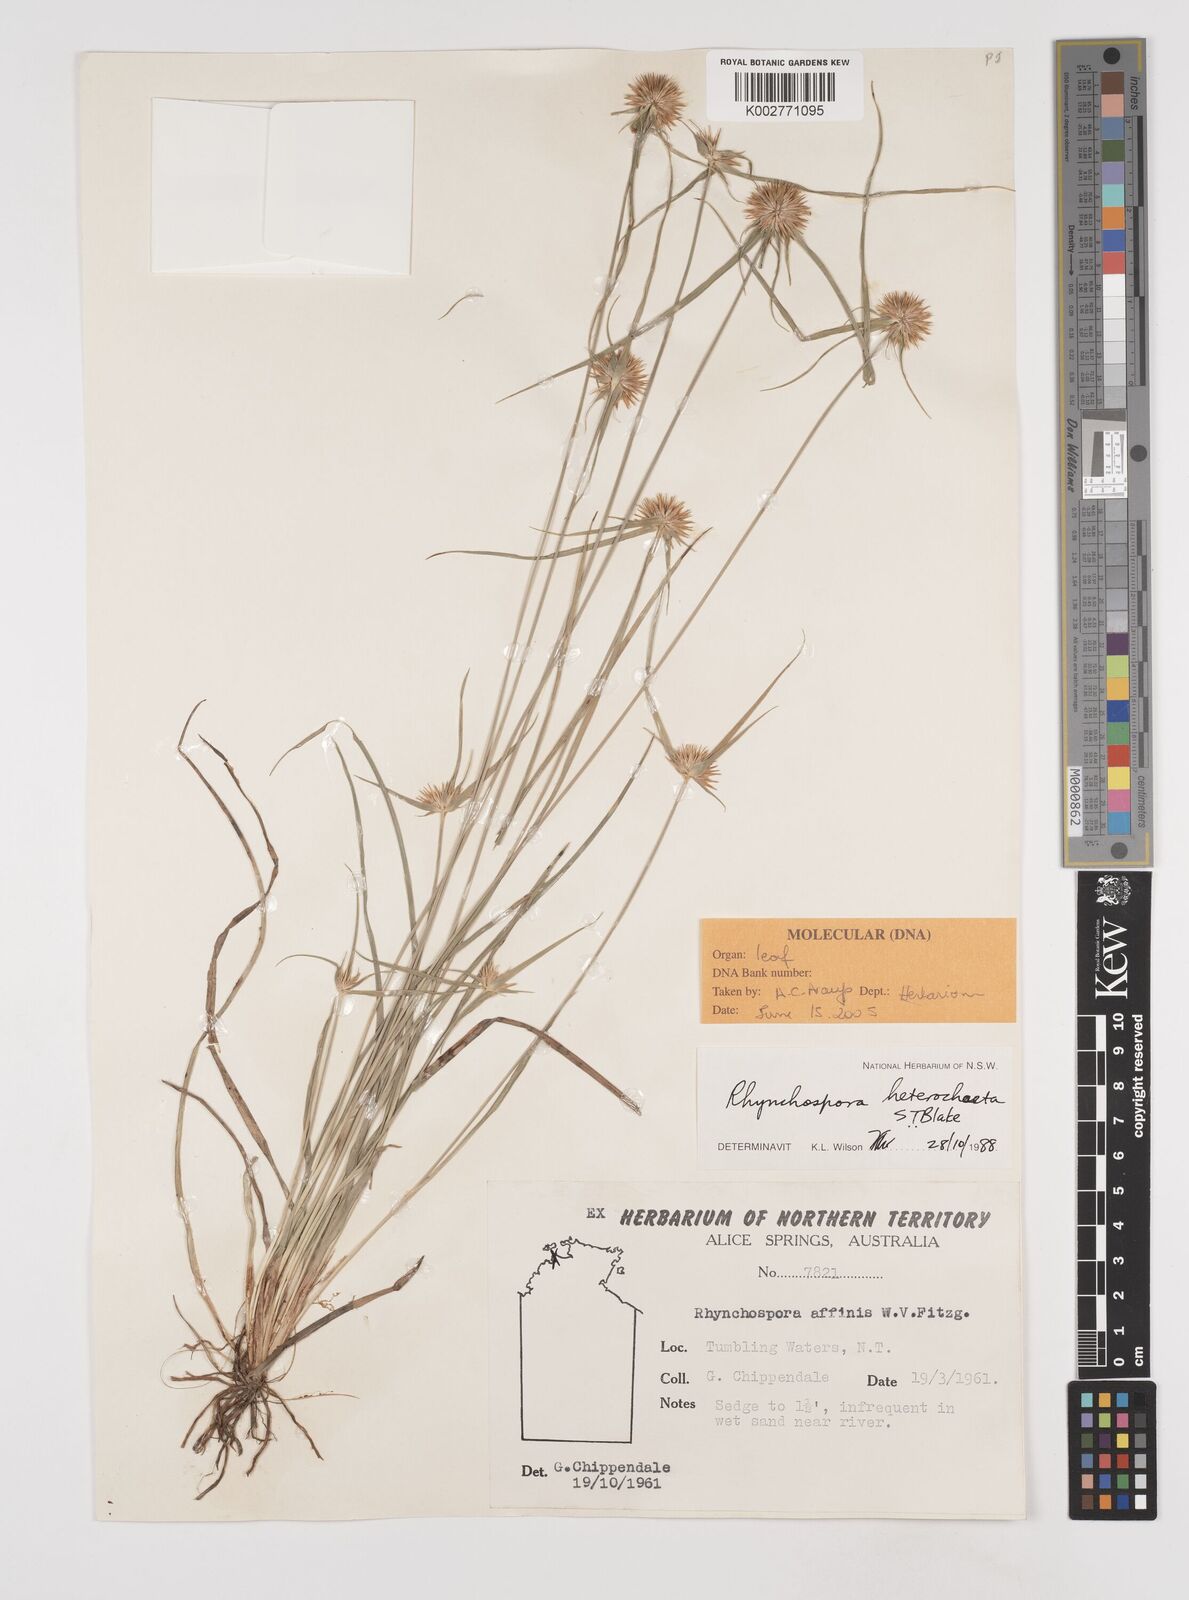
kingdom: Plantae
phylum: Tracheophyta
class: Liliopsida
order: Poales
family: Cyperaceae
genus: Rhynchospora
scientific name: Rhynchospora heterochaeta
